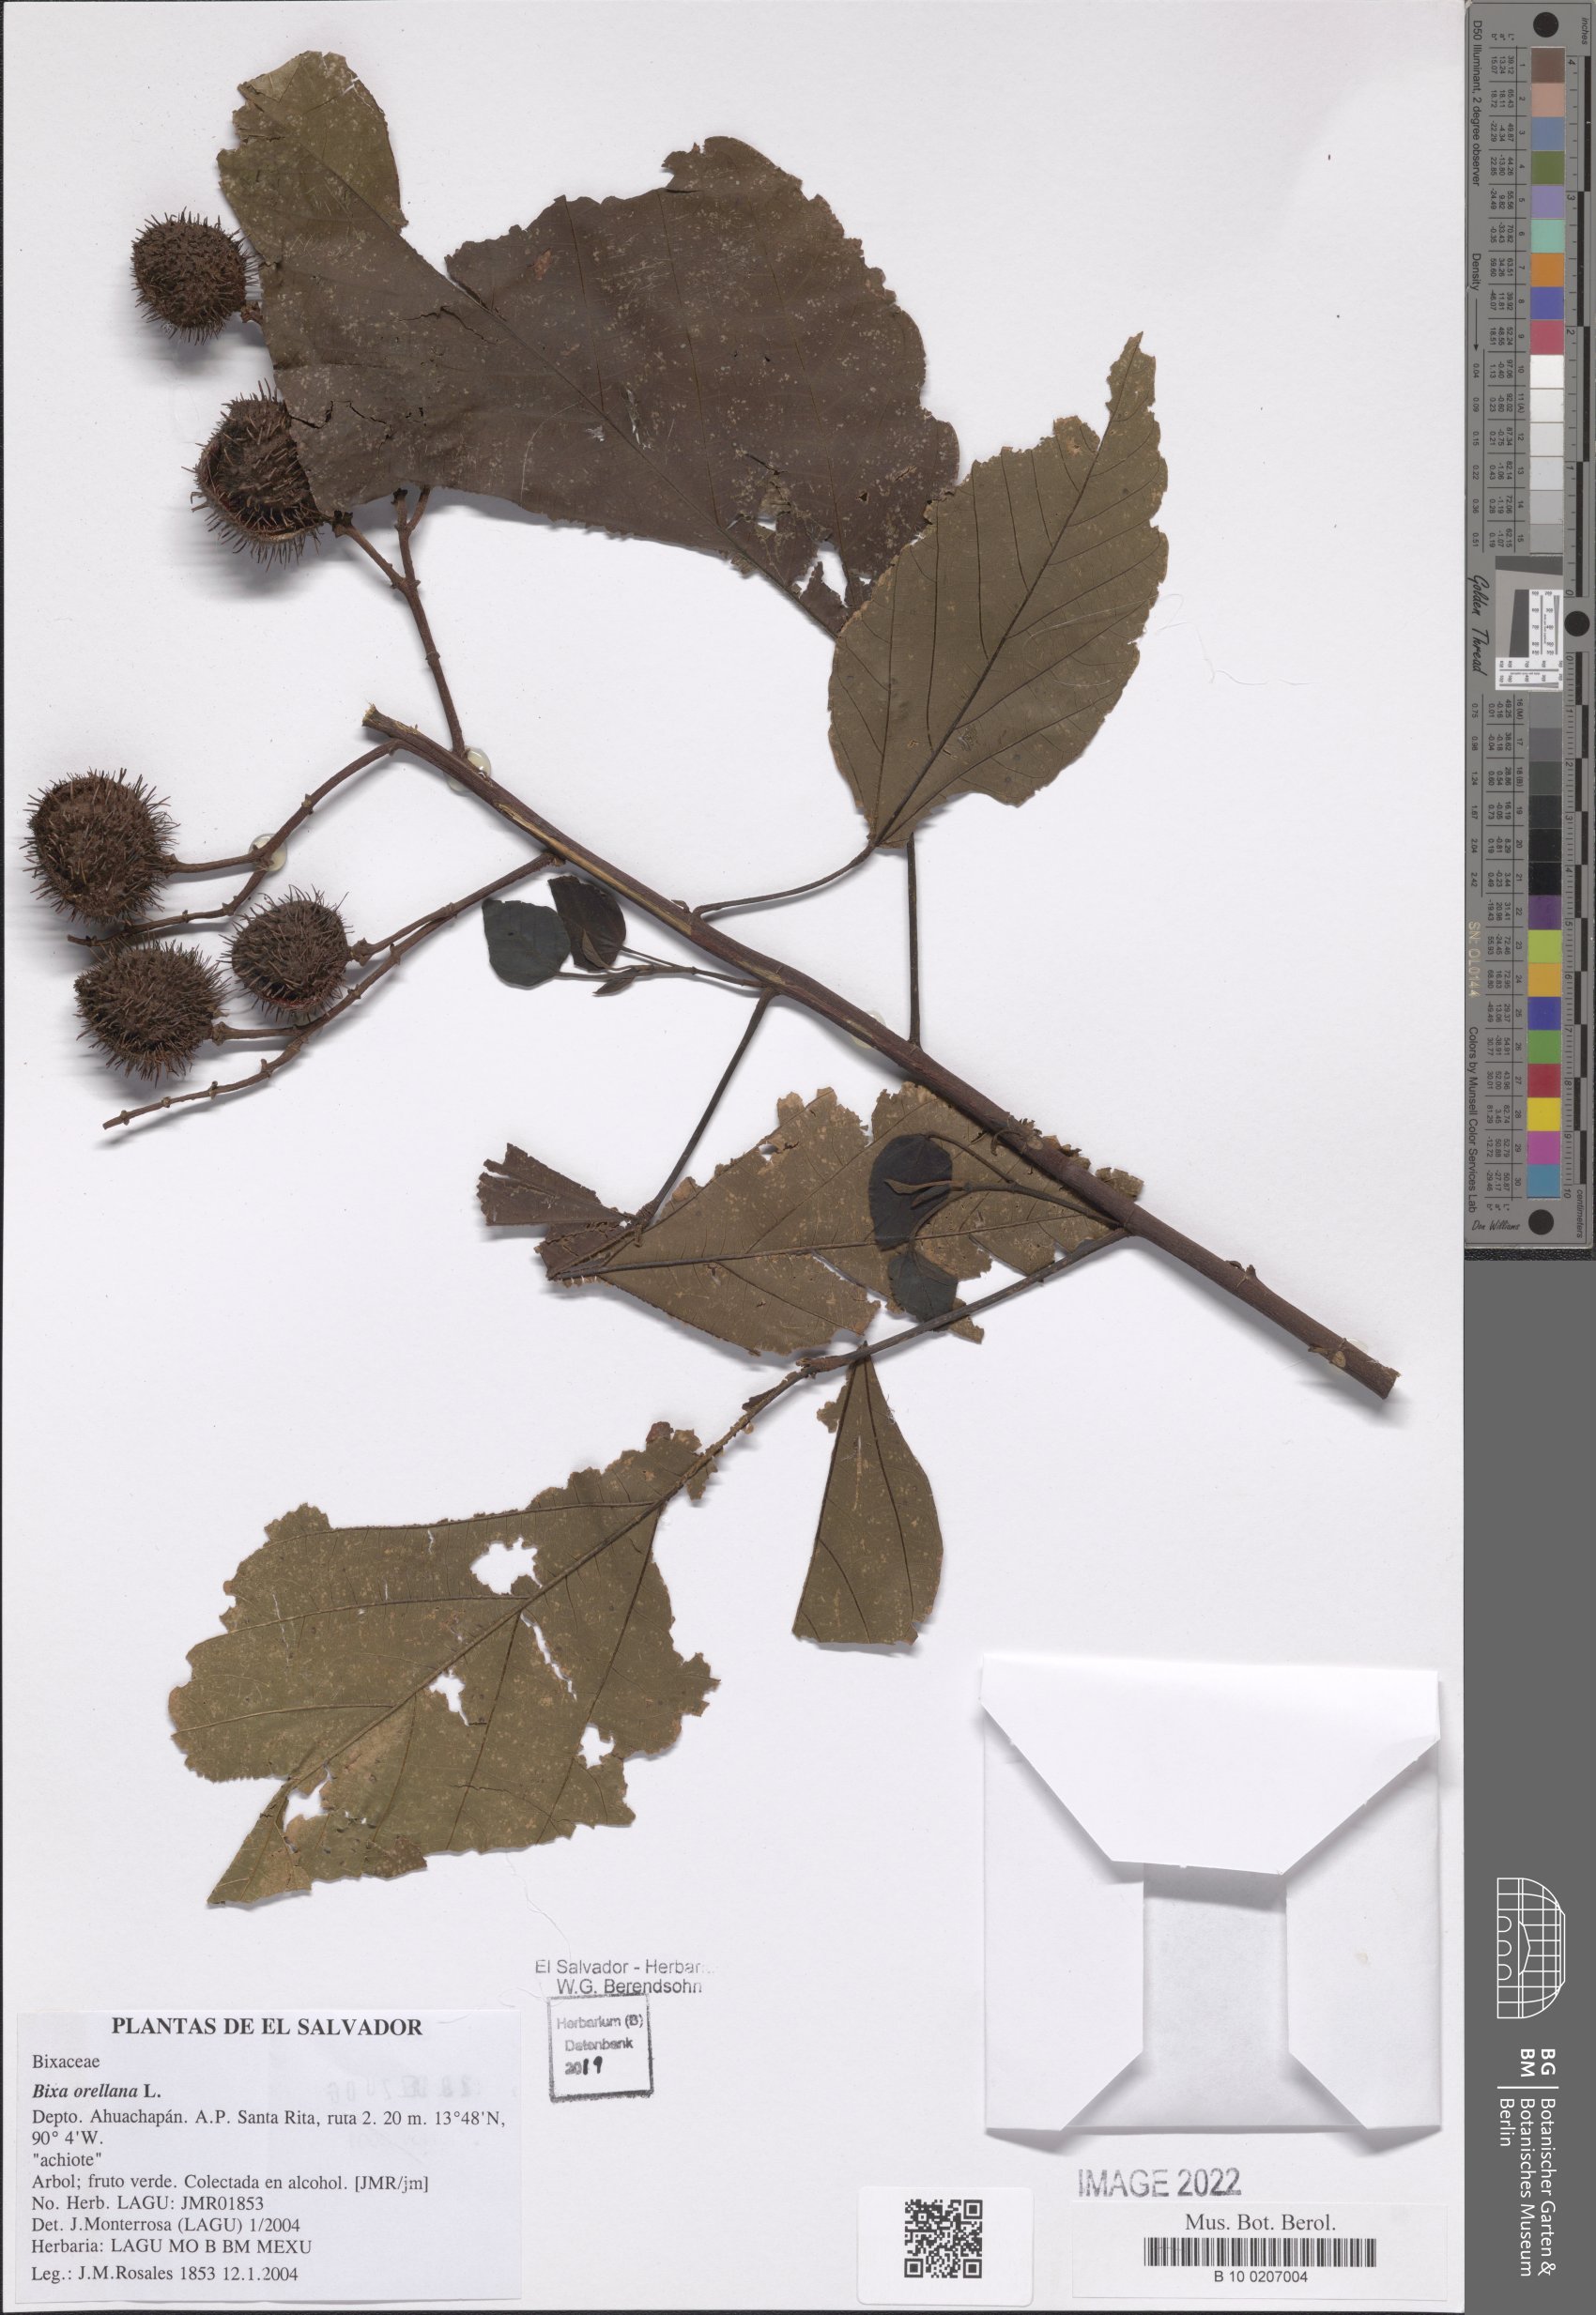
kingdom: Plantae
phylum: Tracheophyta
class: Magnoliopsida
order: Malvales
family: Bixaceae
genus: Bixa
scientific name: Bixa orellana
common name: Lipsticktree
